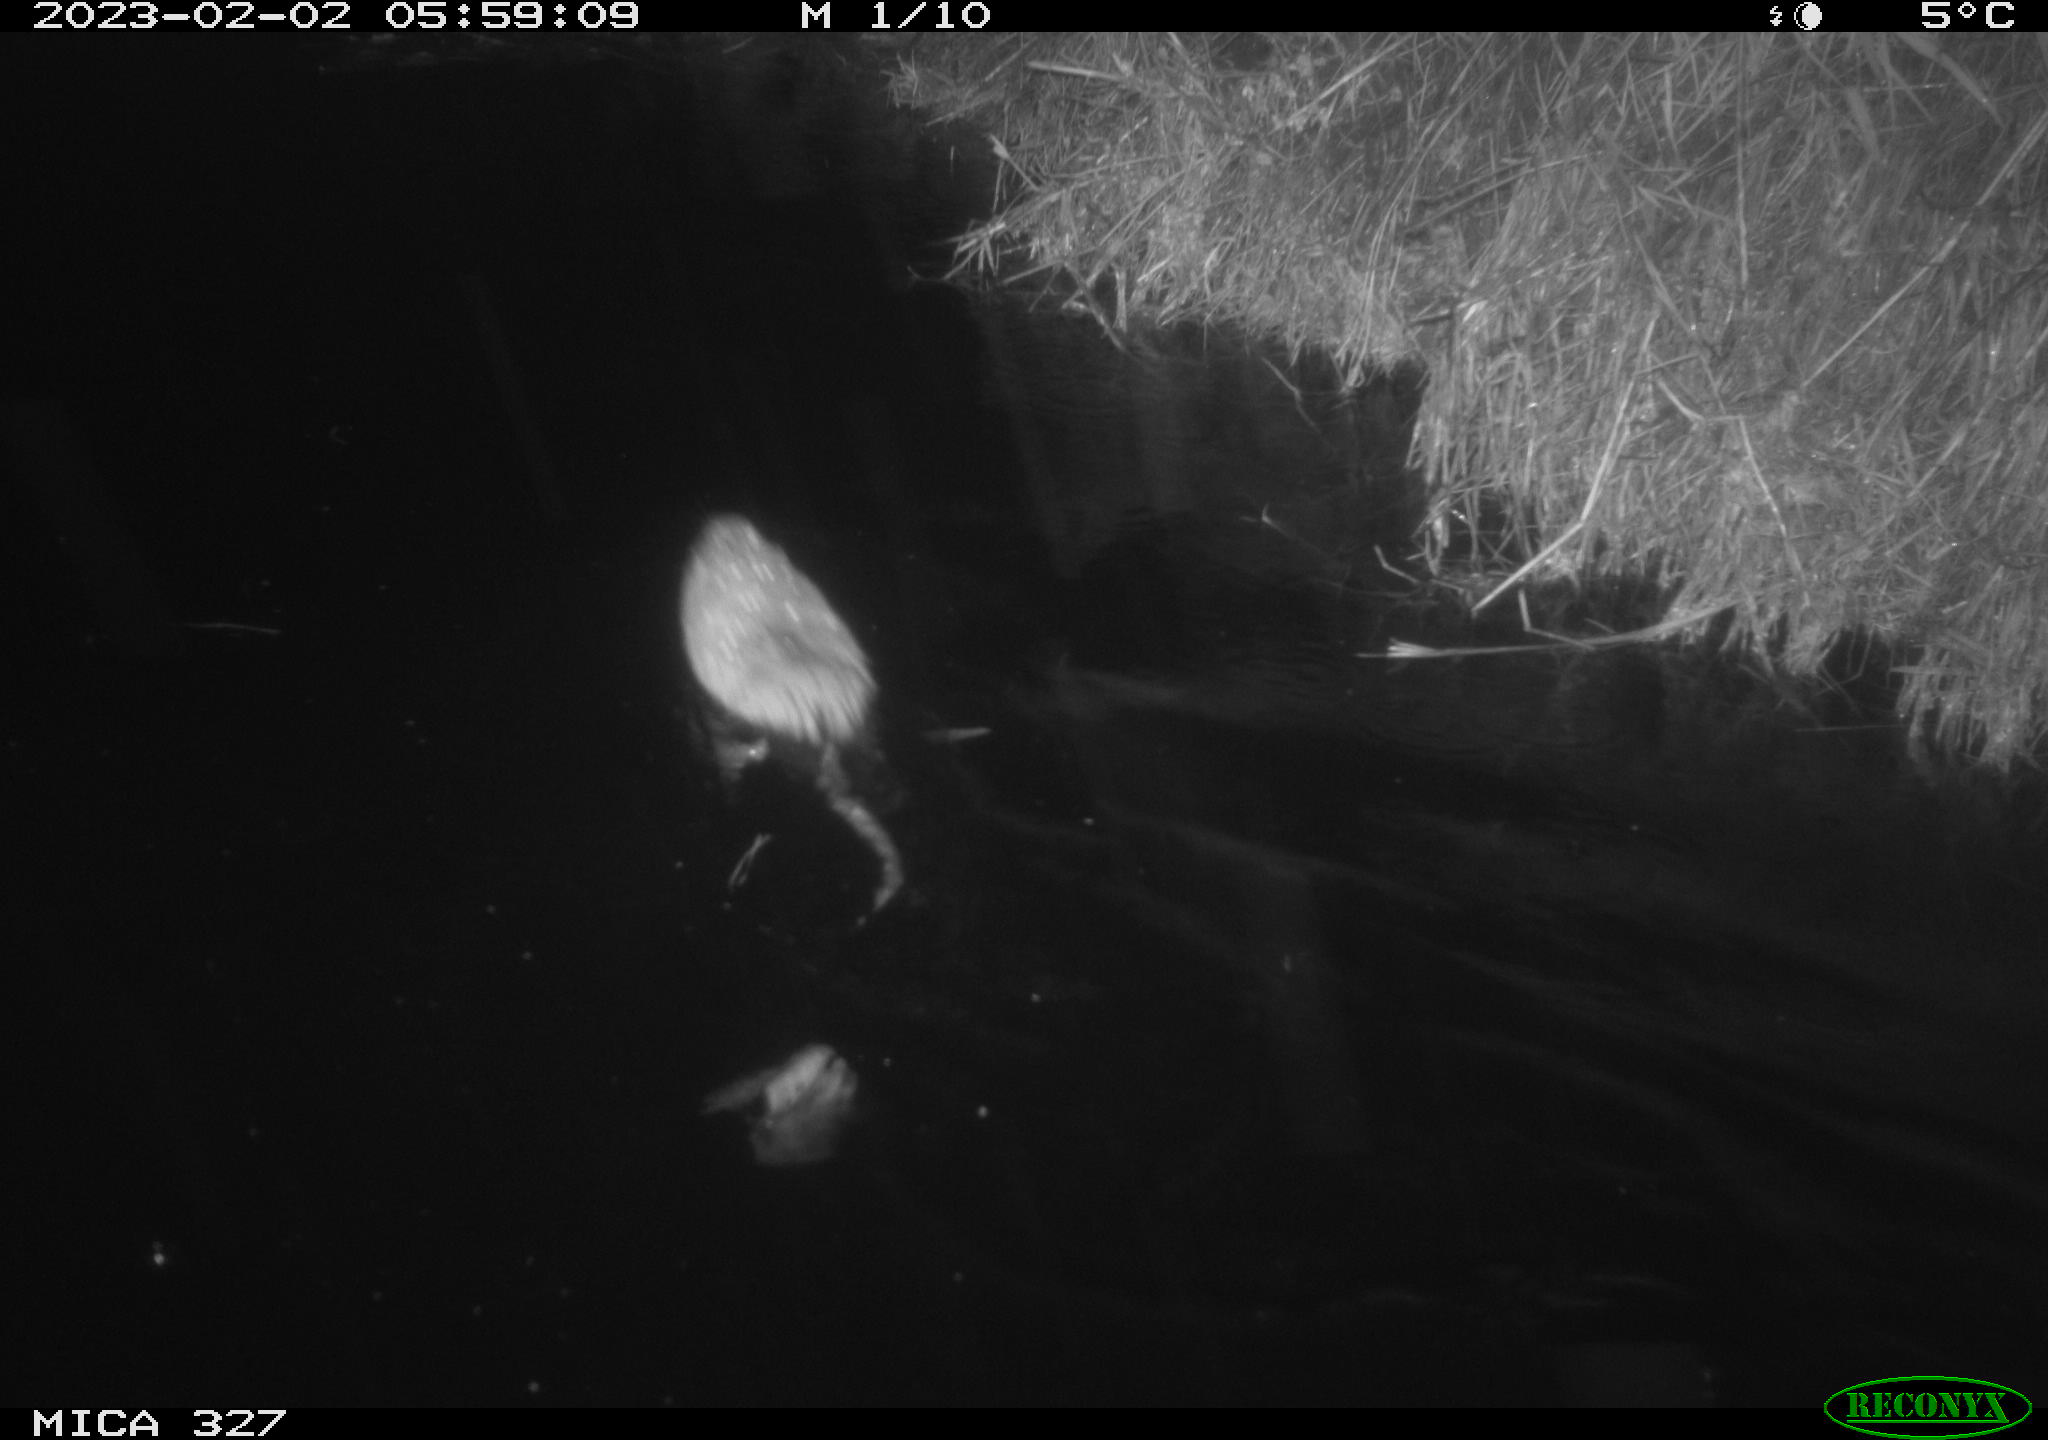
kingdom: Animalia
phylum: Chordata
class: Mammalia
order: Rodentia
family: Cricetidae
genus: Ondatra
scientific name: Ondatra zibethicus
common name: Muskrat
